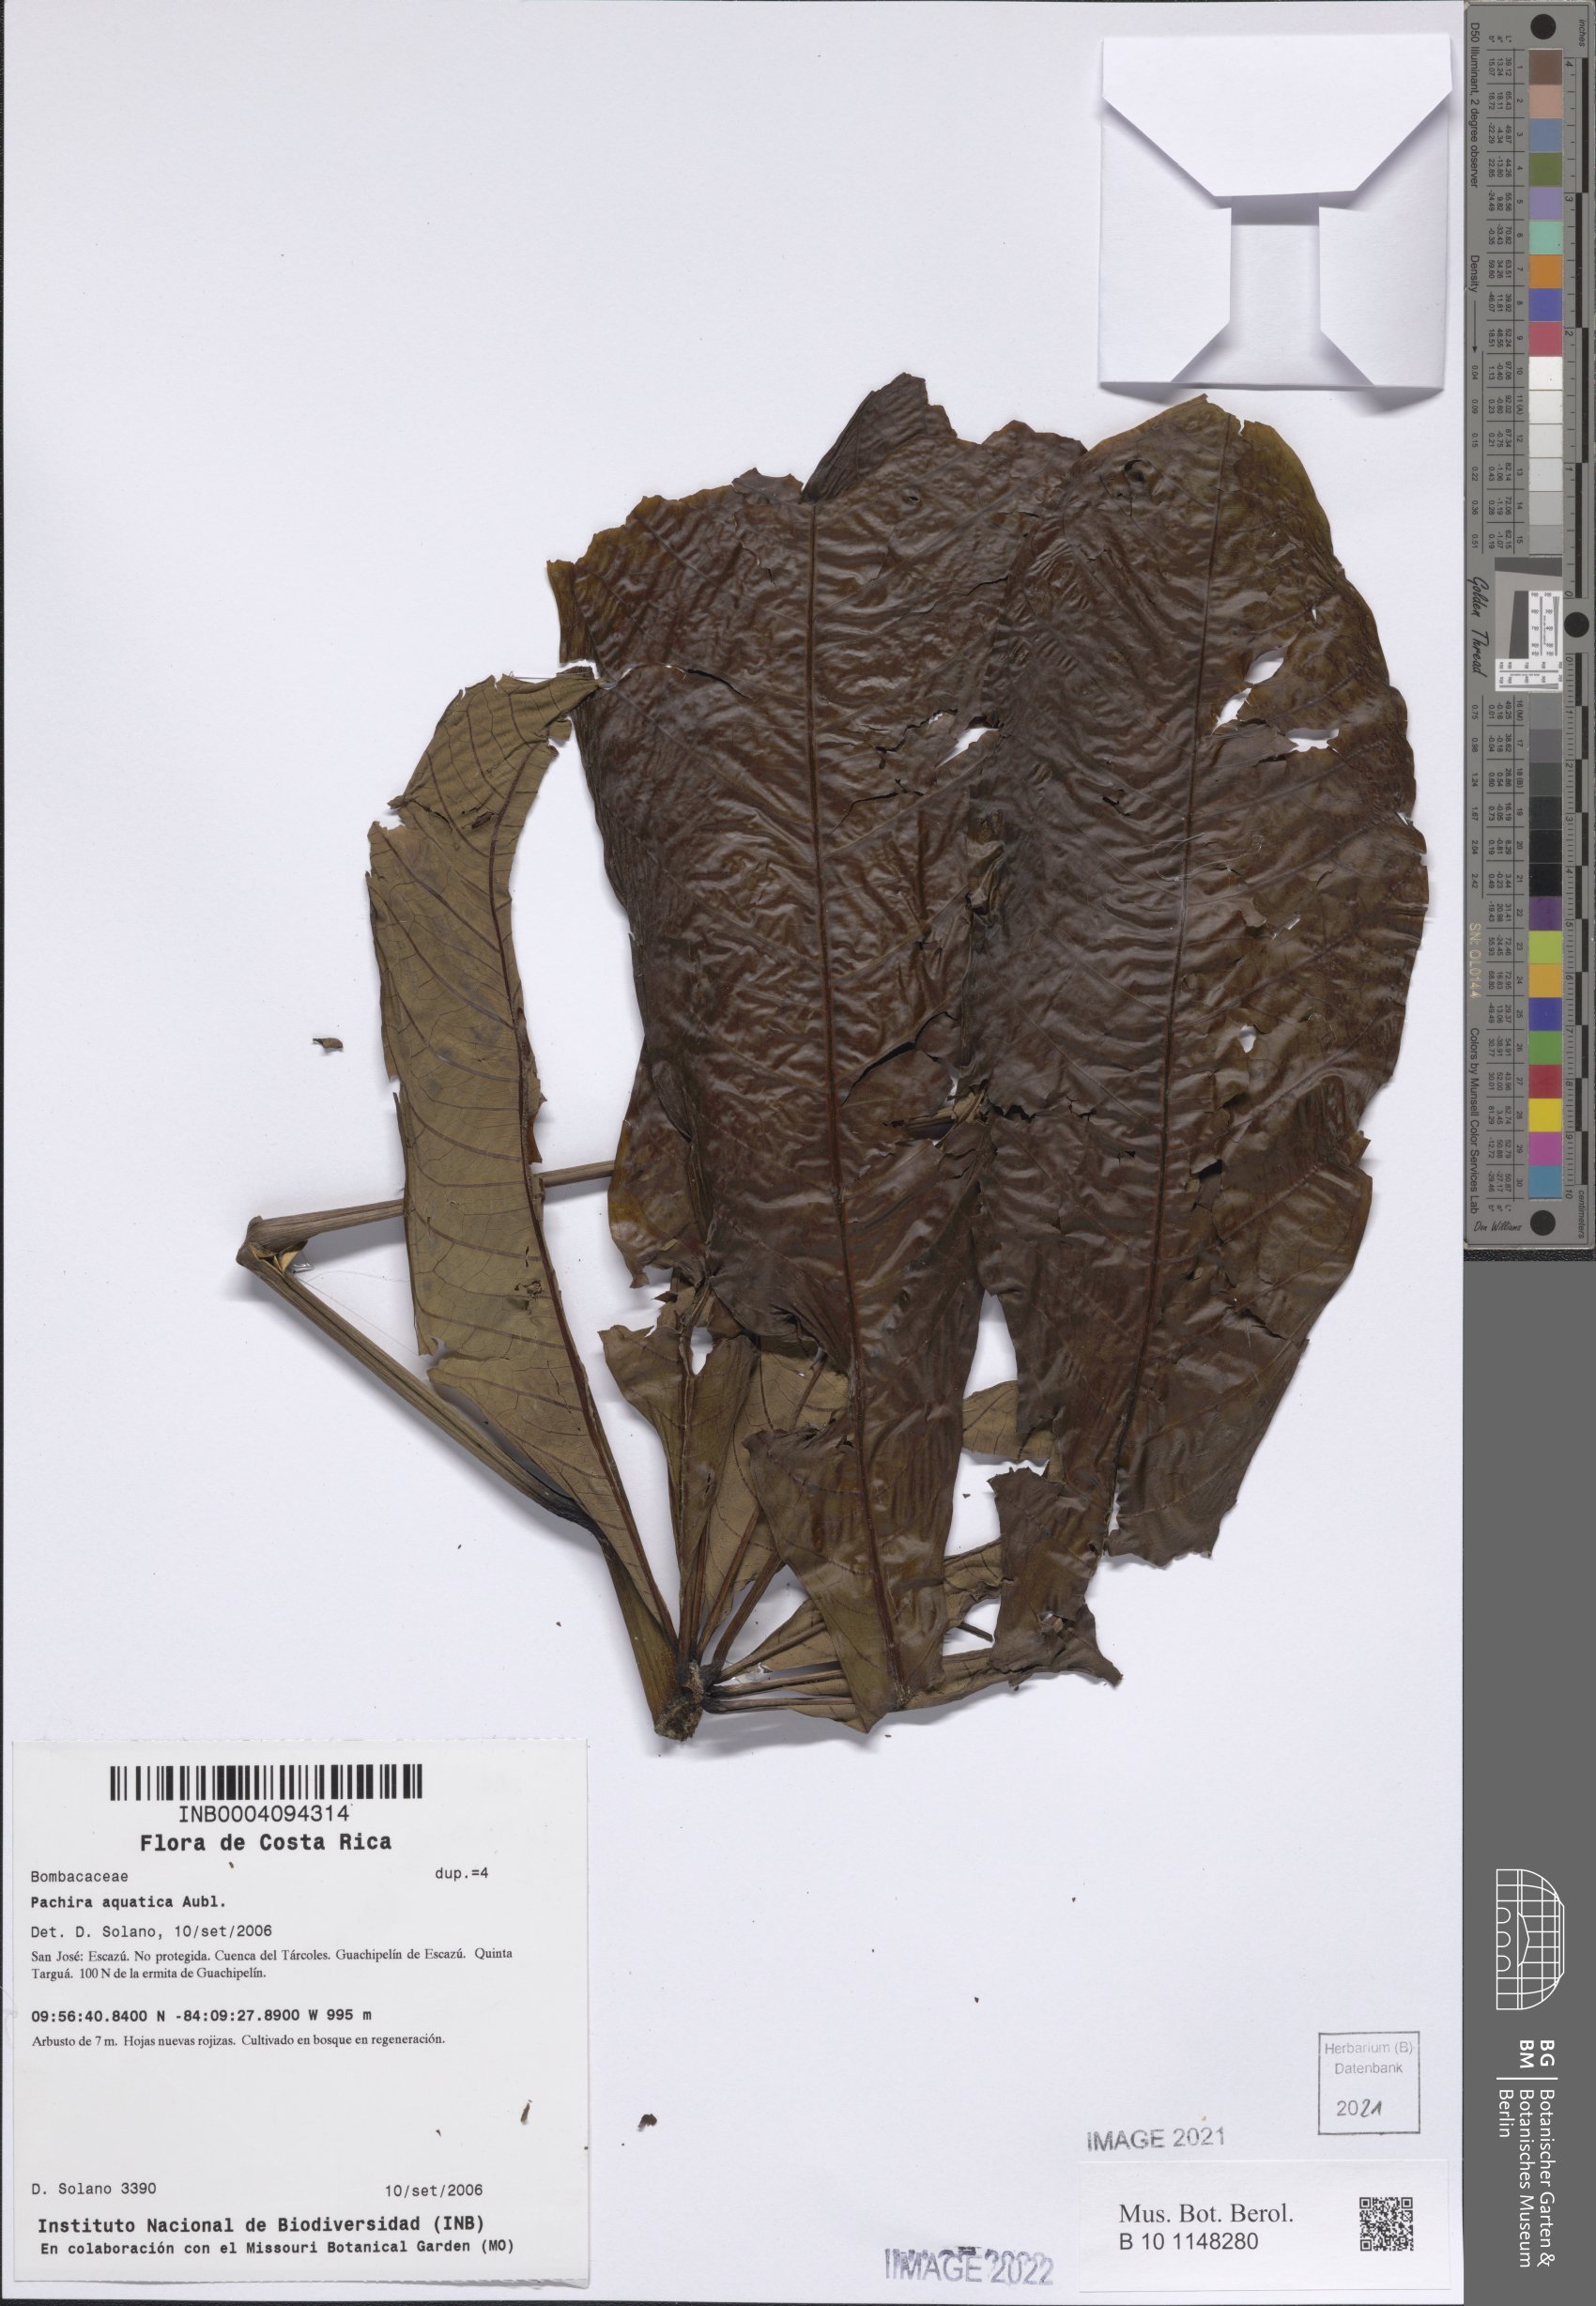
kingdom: Plantae
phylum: Tracheophyta
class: Magnoliopsida
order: Malvales
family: Malvaceae
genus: Pachira
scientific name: Pachira aquatica
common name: Provision-tree
